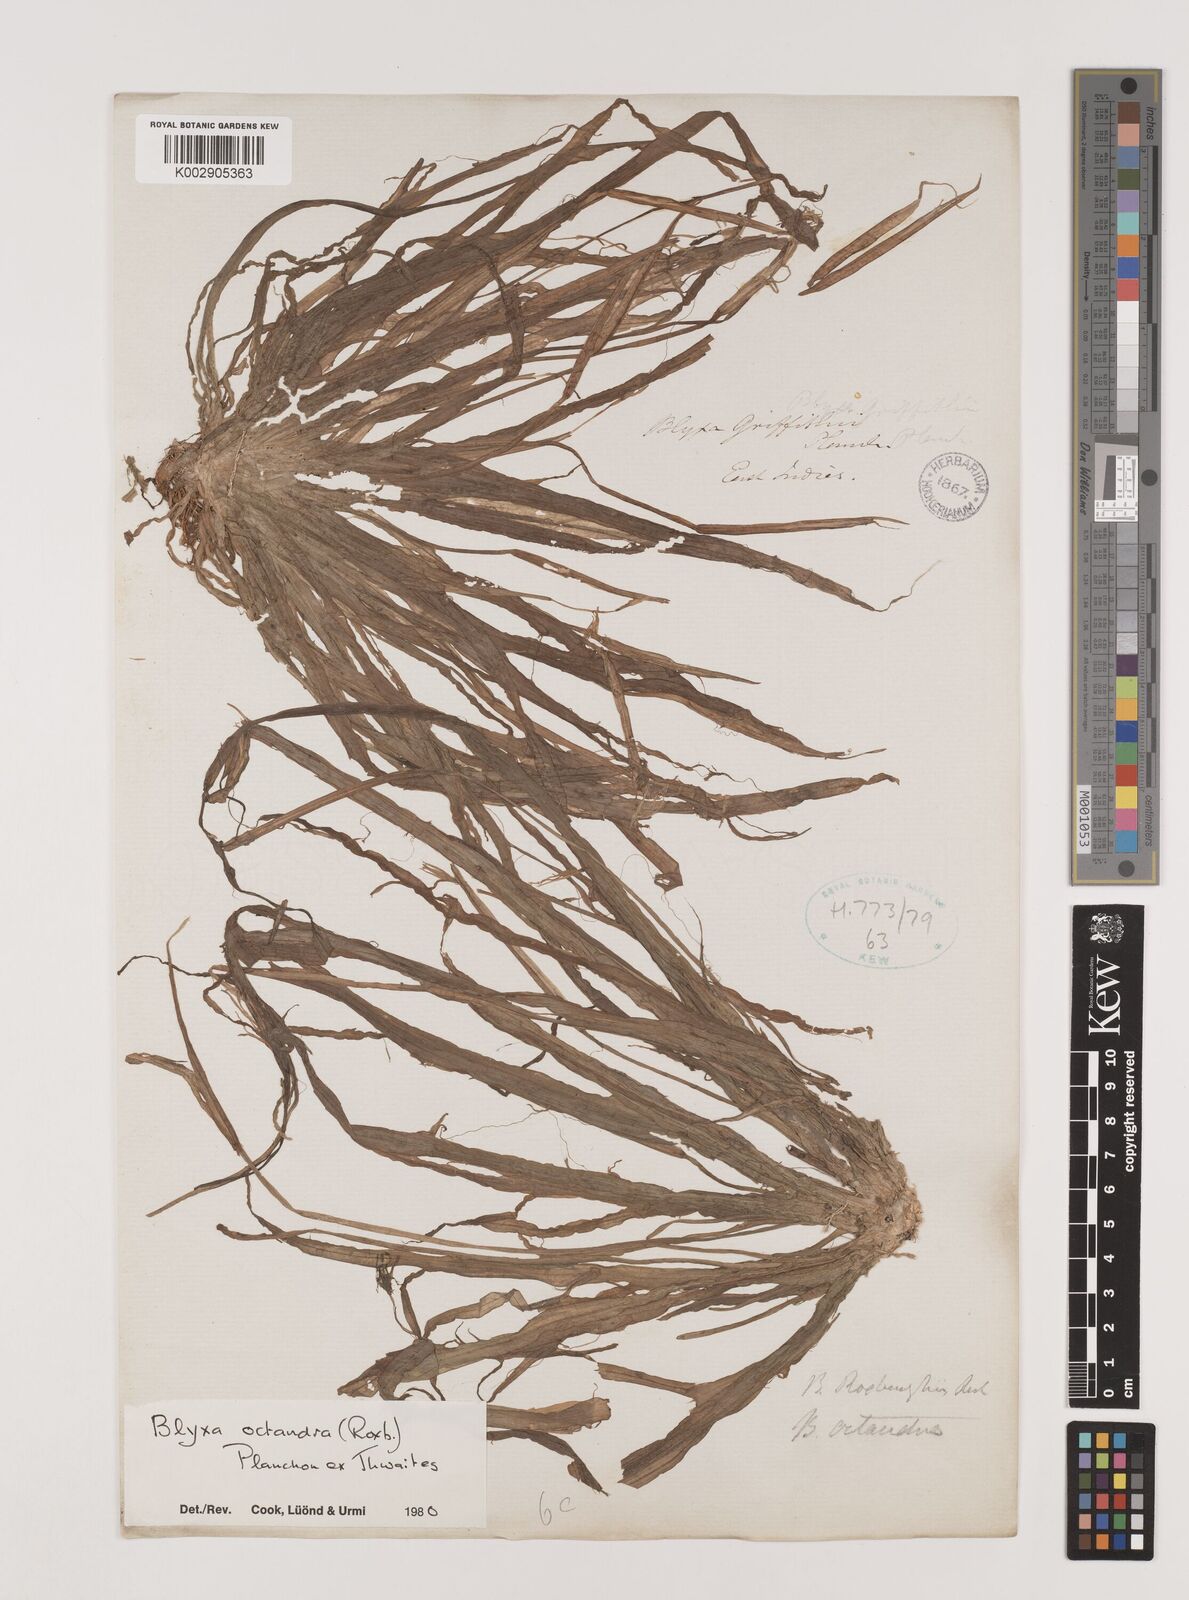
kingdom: Plantae
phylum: Tracheophyta
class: Liliopsida
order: Alismatales
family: Hydrocharitaceae
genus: Blyxa
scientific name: Blyxa octandra
